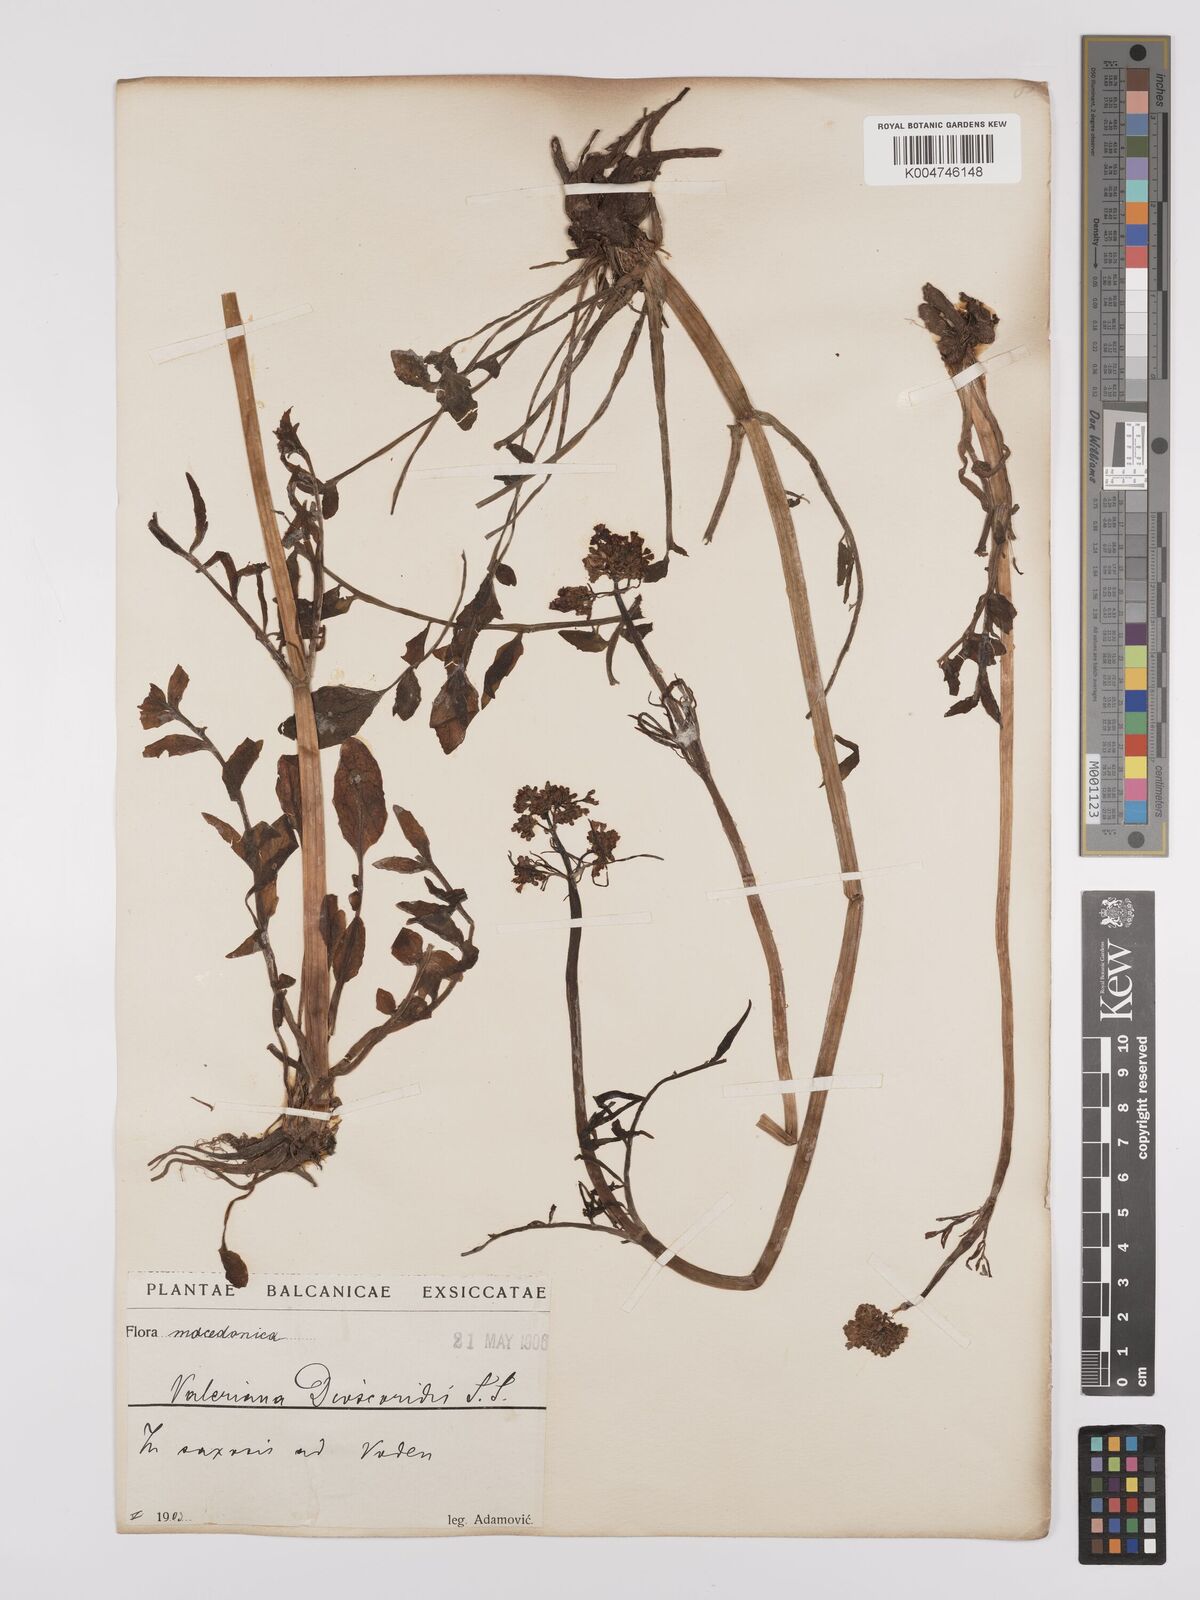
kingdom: Plantae
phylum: Tracheophyta
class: Magnoliopsida
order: Dipsacales
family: Caprifoliaceae
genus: Valeriana
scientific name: Valeriana dioscoridis
